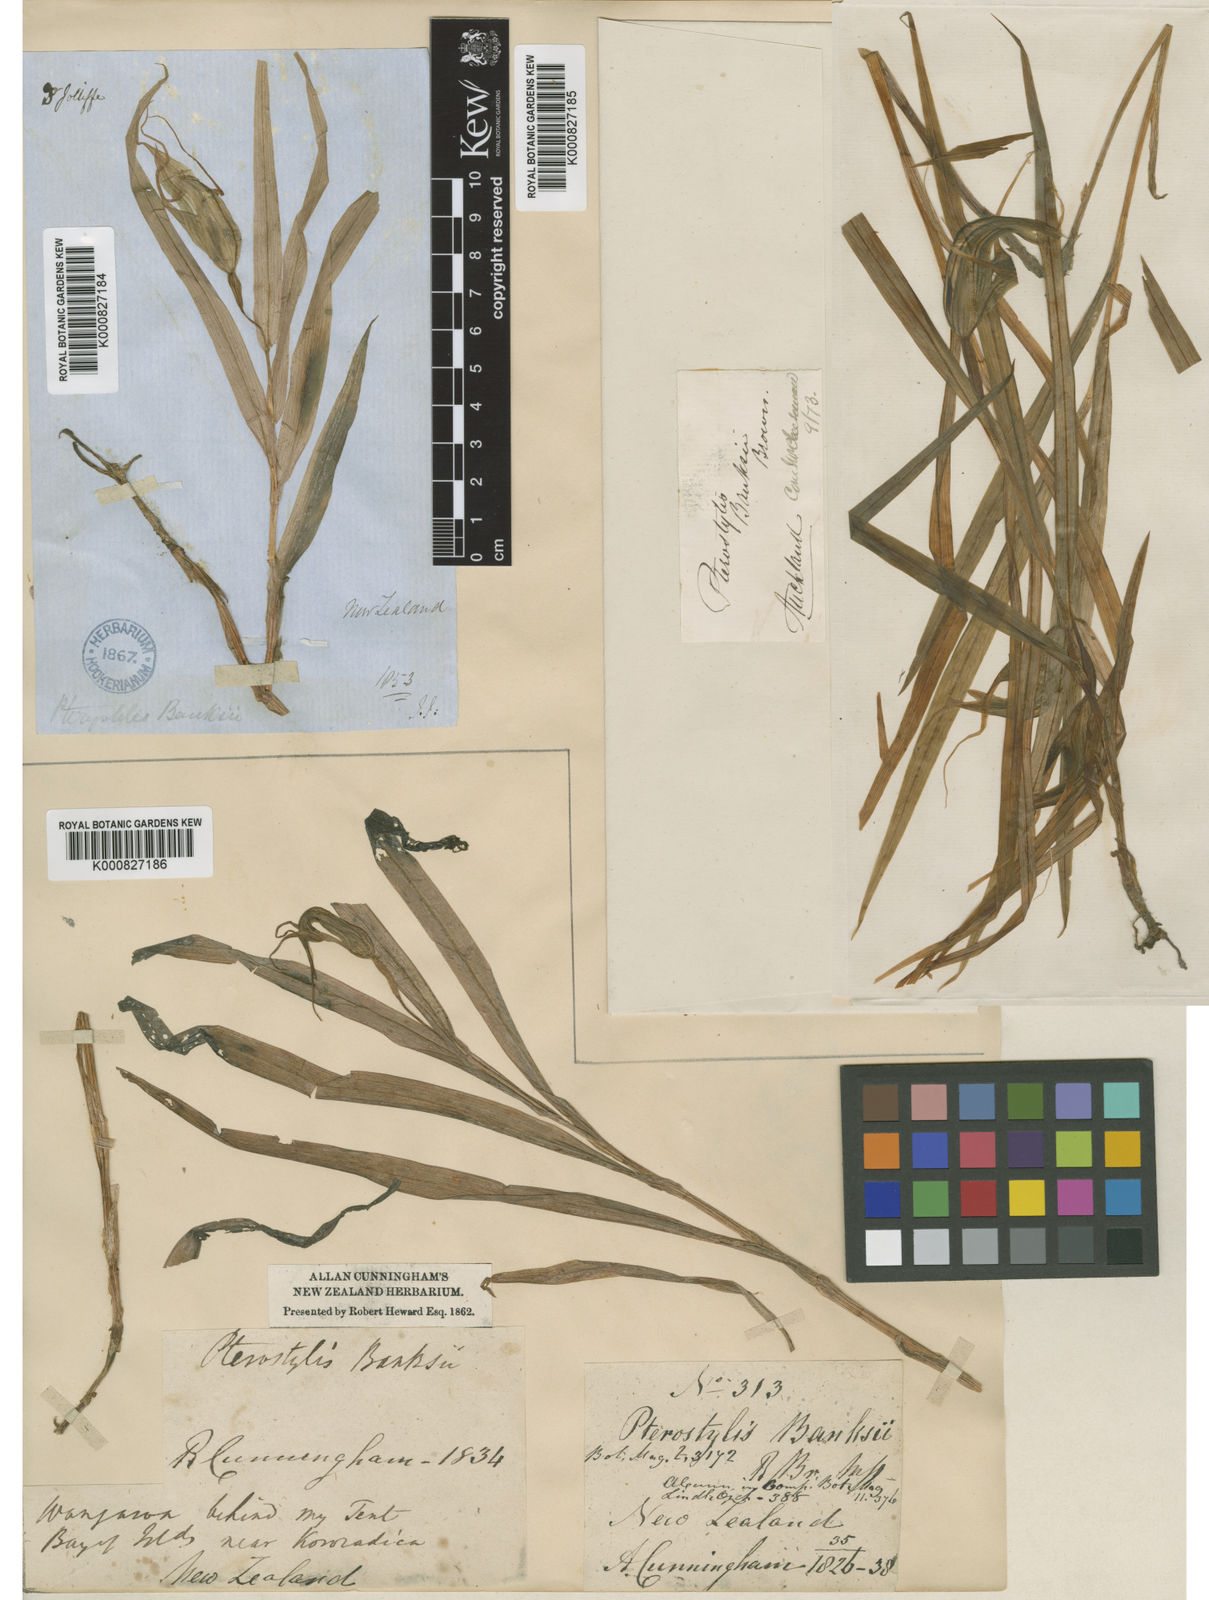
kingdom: Plantae
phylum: Tracheophyta
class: Liliopsida
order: Asparagales
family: Orchidaceae
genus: Pterostylis
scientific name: Pterostylis banksii
